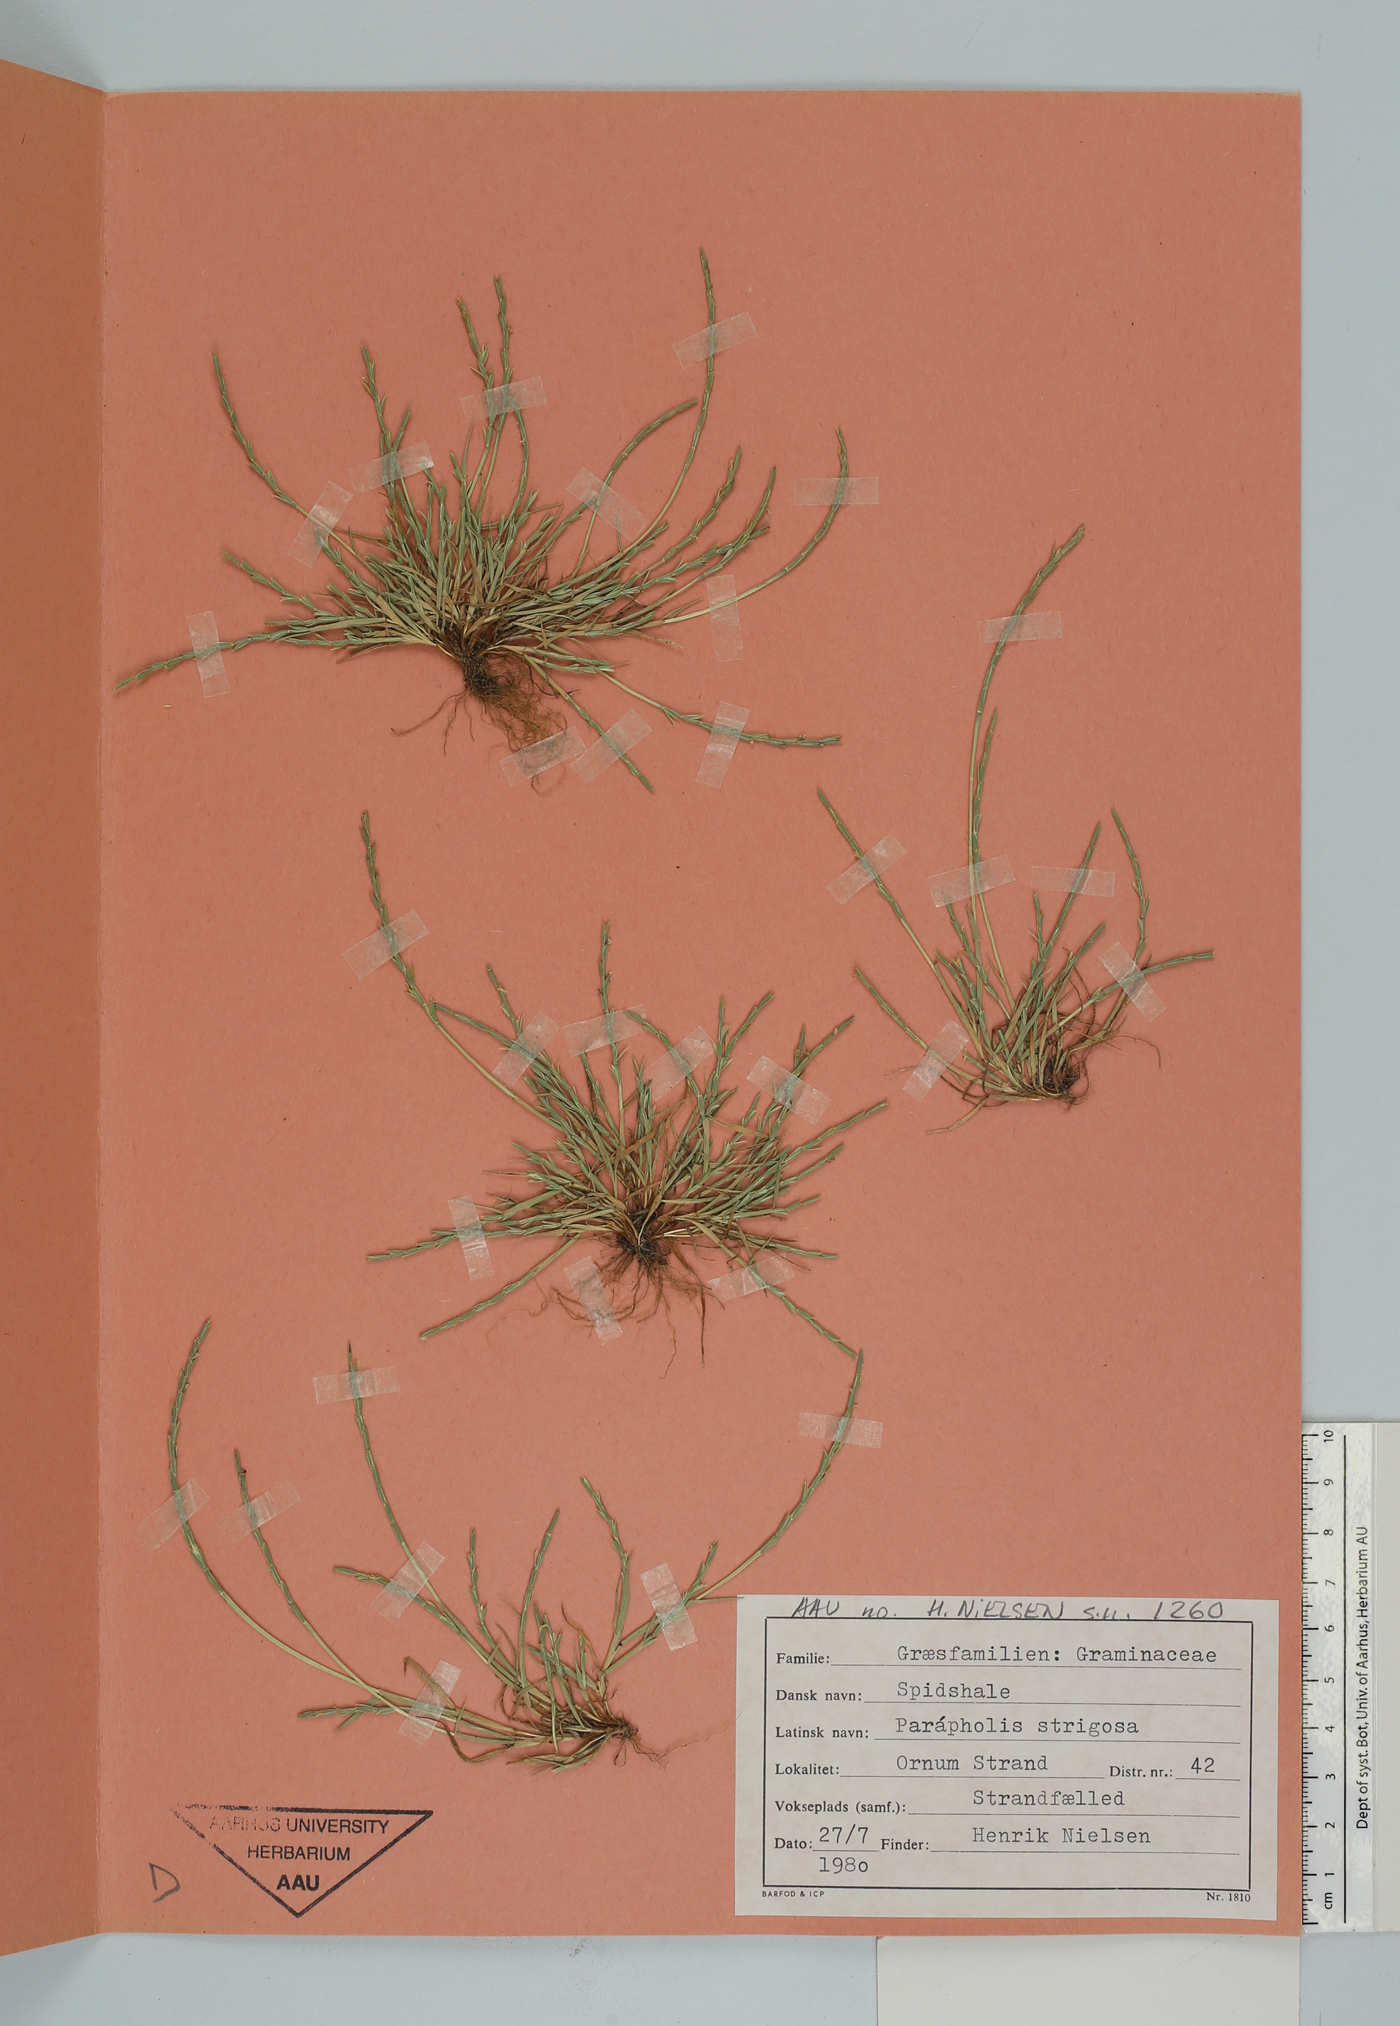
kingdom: Plantae
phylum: Tracheophyta
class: Liliopsida
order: Poales
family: Poaceae
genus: Parapholis
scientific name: Parapholis strigosa
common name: Hard-grass
